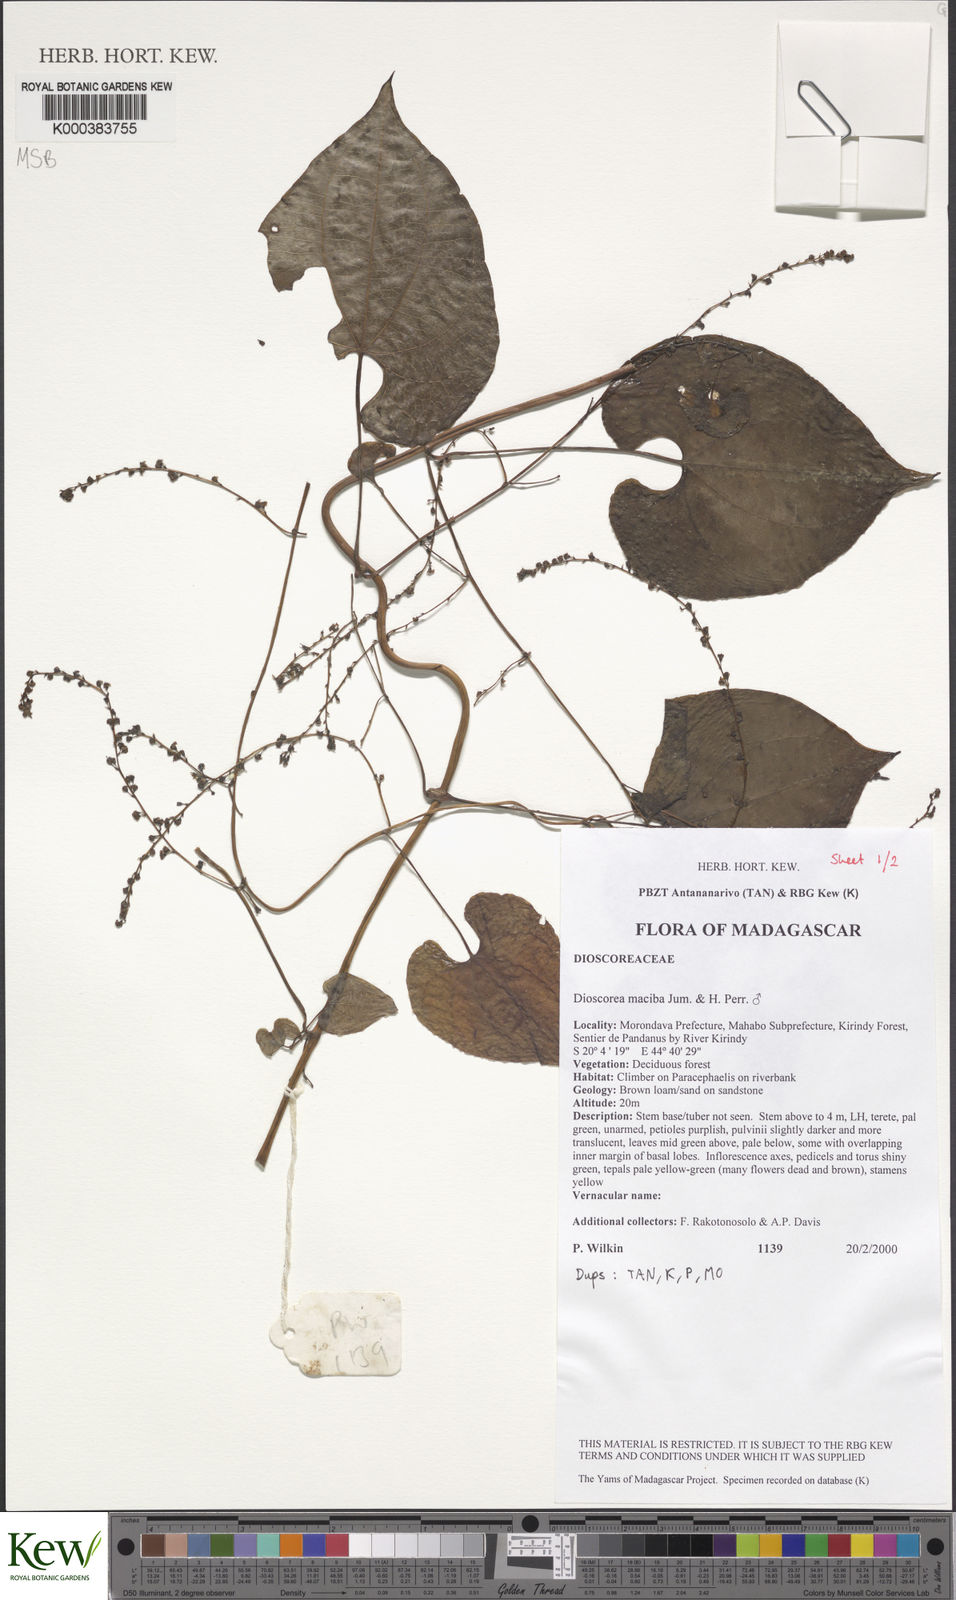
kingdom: Plantae
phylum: Tracheophyta
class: Liliopsida
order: Dioscoreales
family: Dioscoreaceae
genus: Dioscorea
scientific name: Dioscorea
